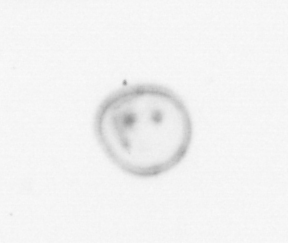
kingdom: Chromista
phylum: Myzozoa
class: Dinophyceae
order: Noctilucales
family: Noctilucaceae
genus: Noctiluca
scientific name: Noctiluca scintillans
